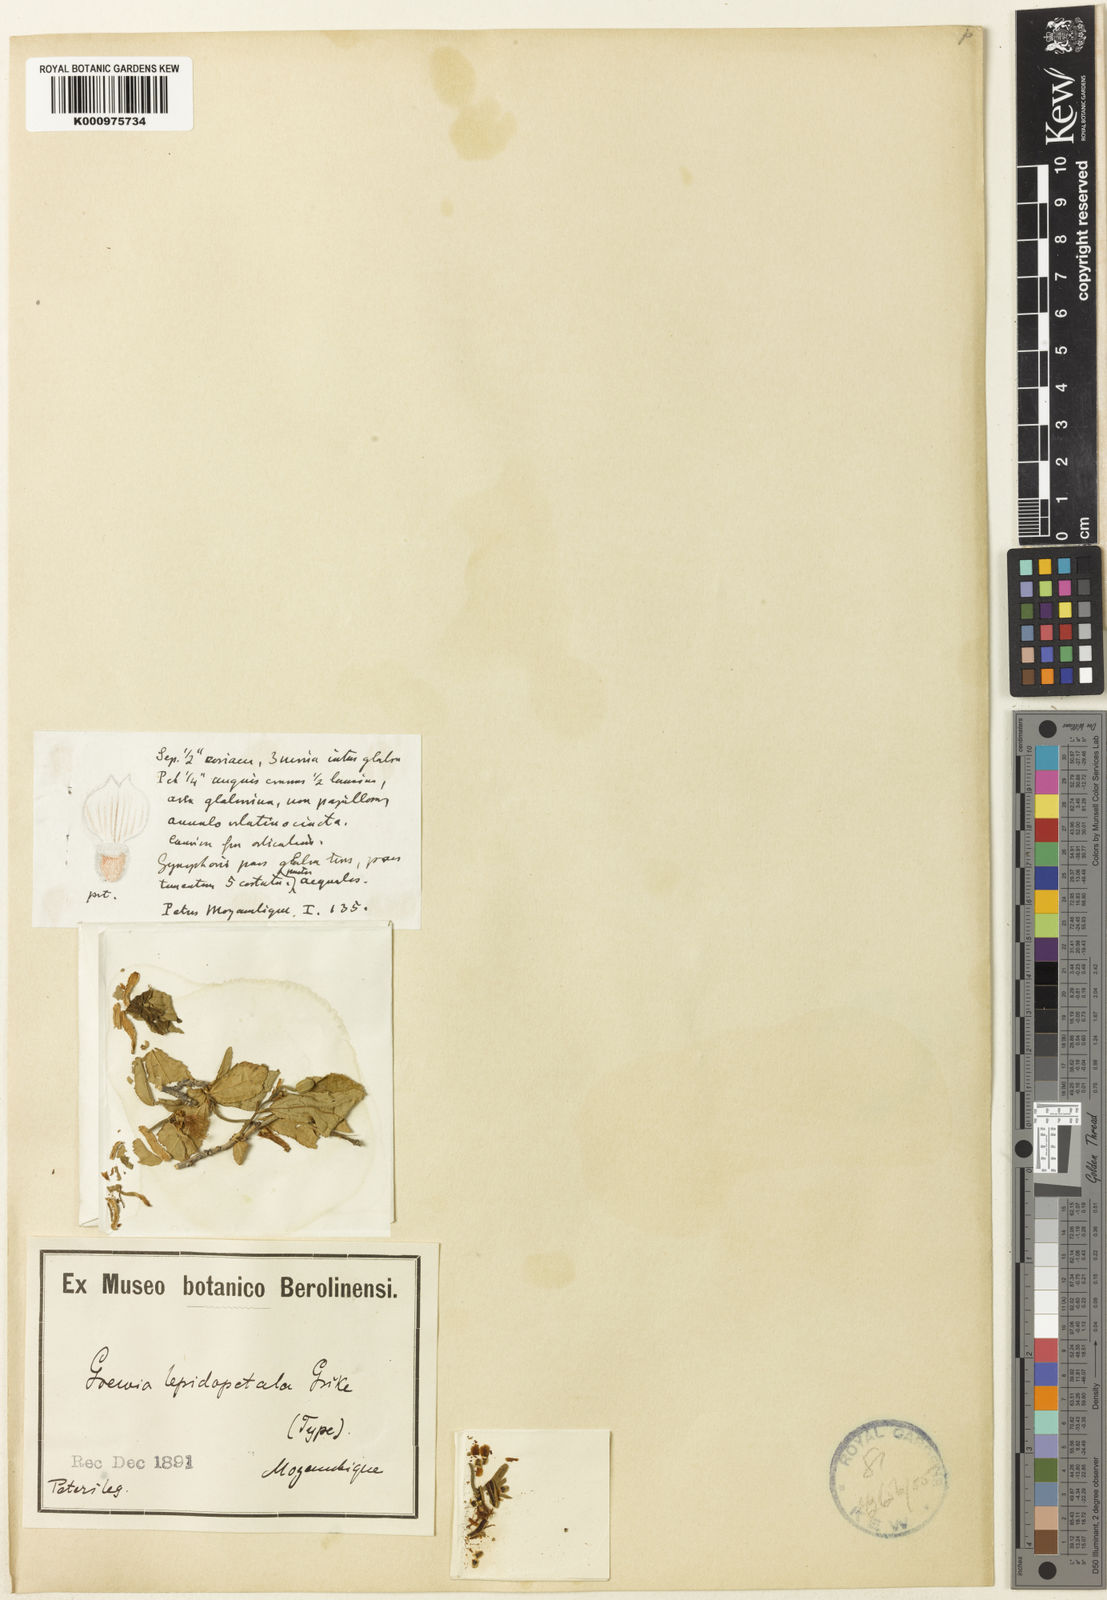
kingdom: Plantae
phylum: Tracheophyta
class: Magnoliopsida
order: Malvales
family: Malvaceae
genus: Grewia
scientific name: Grewia lepidopetala
